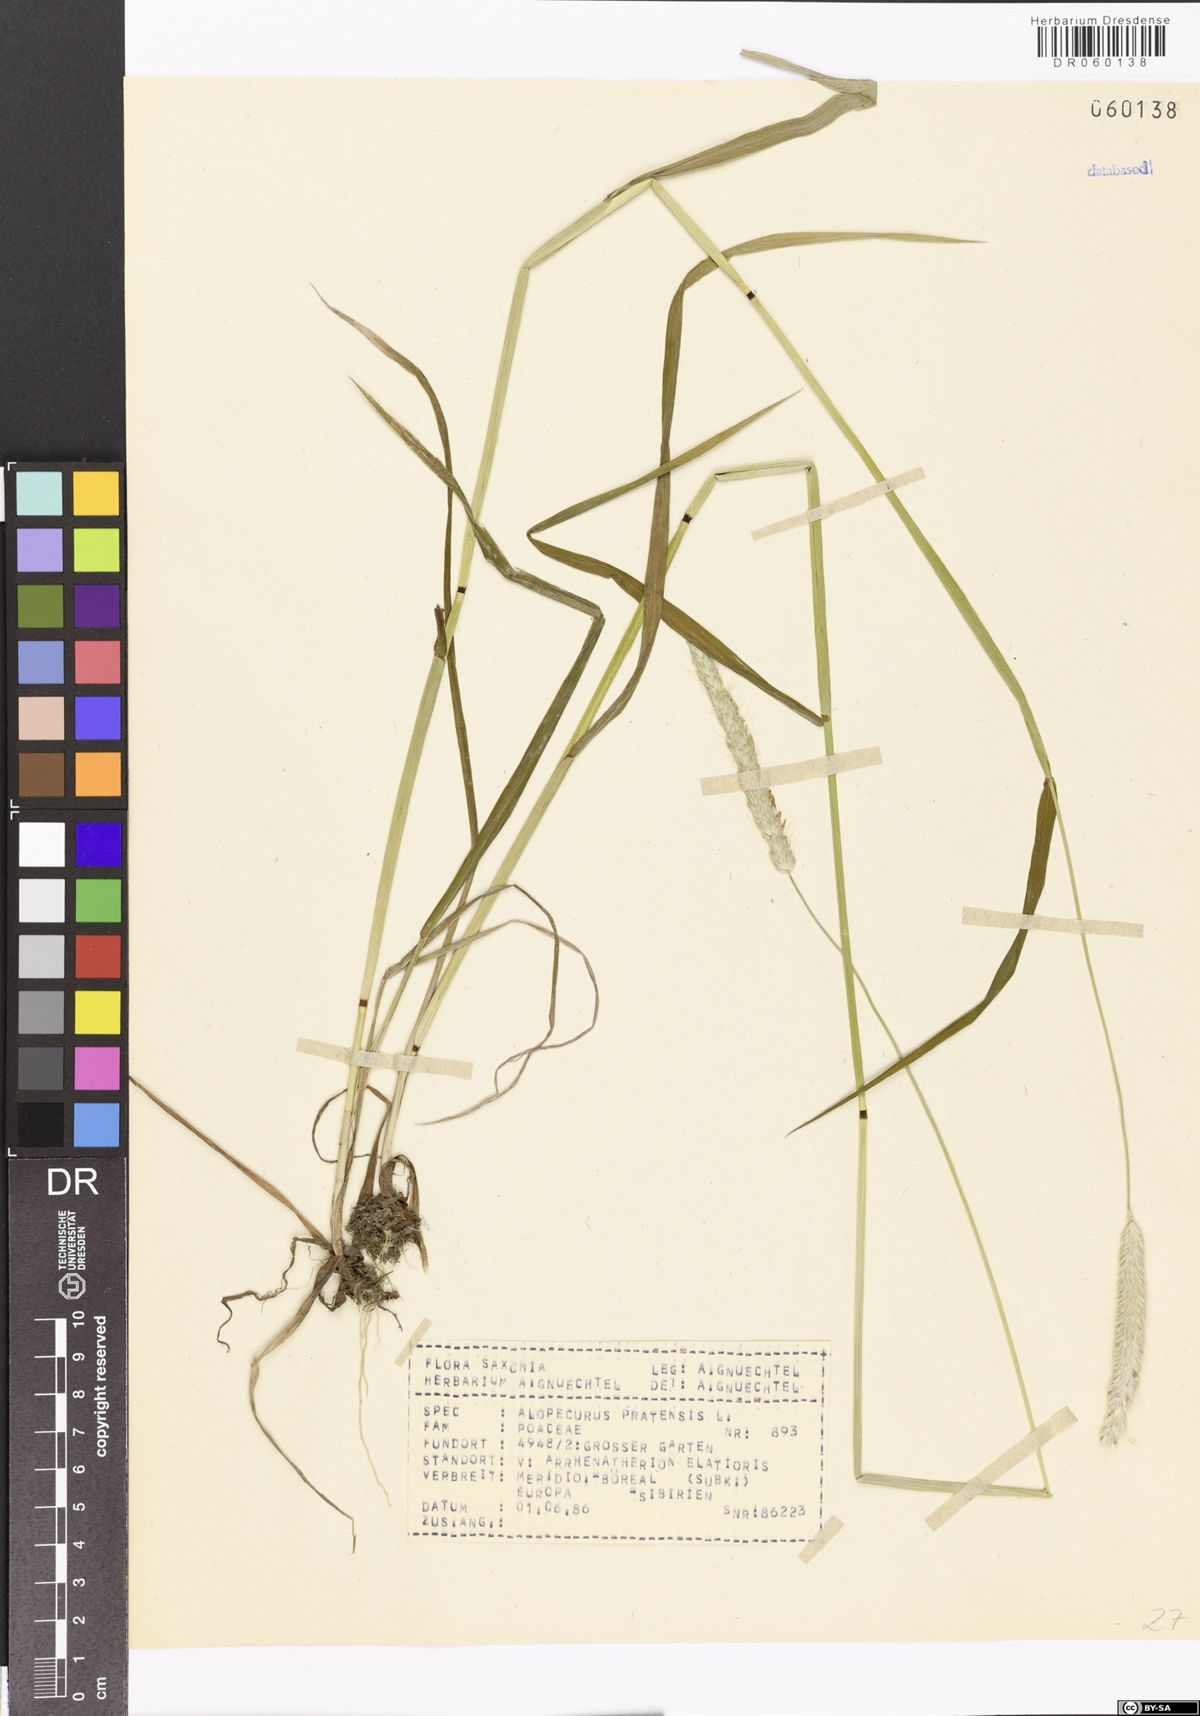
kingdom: Plantae
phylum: Tracheophyta
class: Liliopsida
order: Poales
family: Poaceae
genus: Alopecurus
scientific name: Alopecurus pratensis
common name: Meadow foxtail
